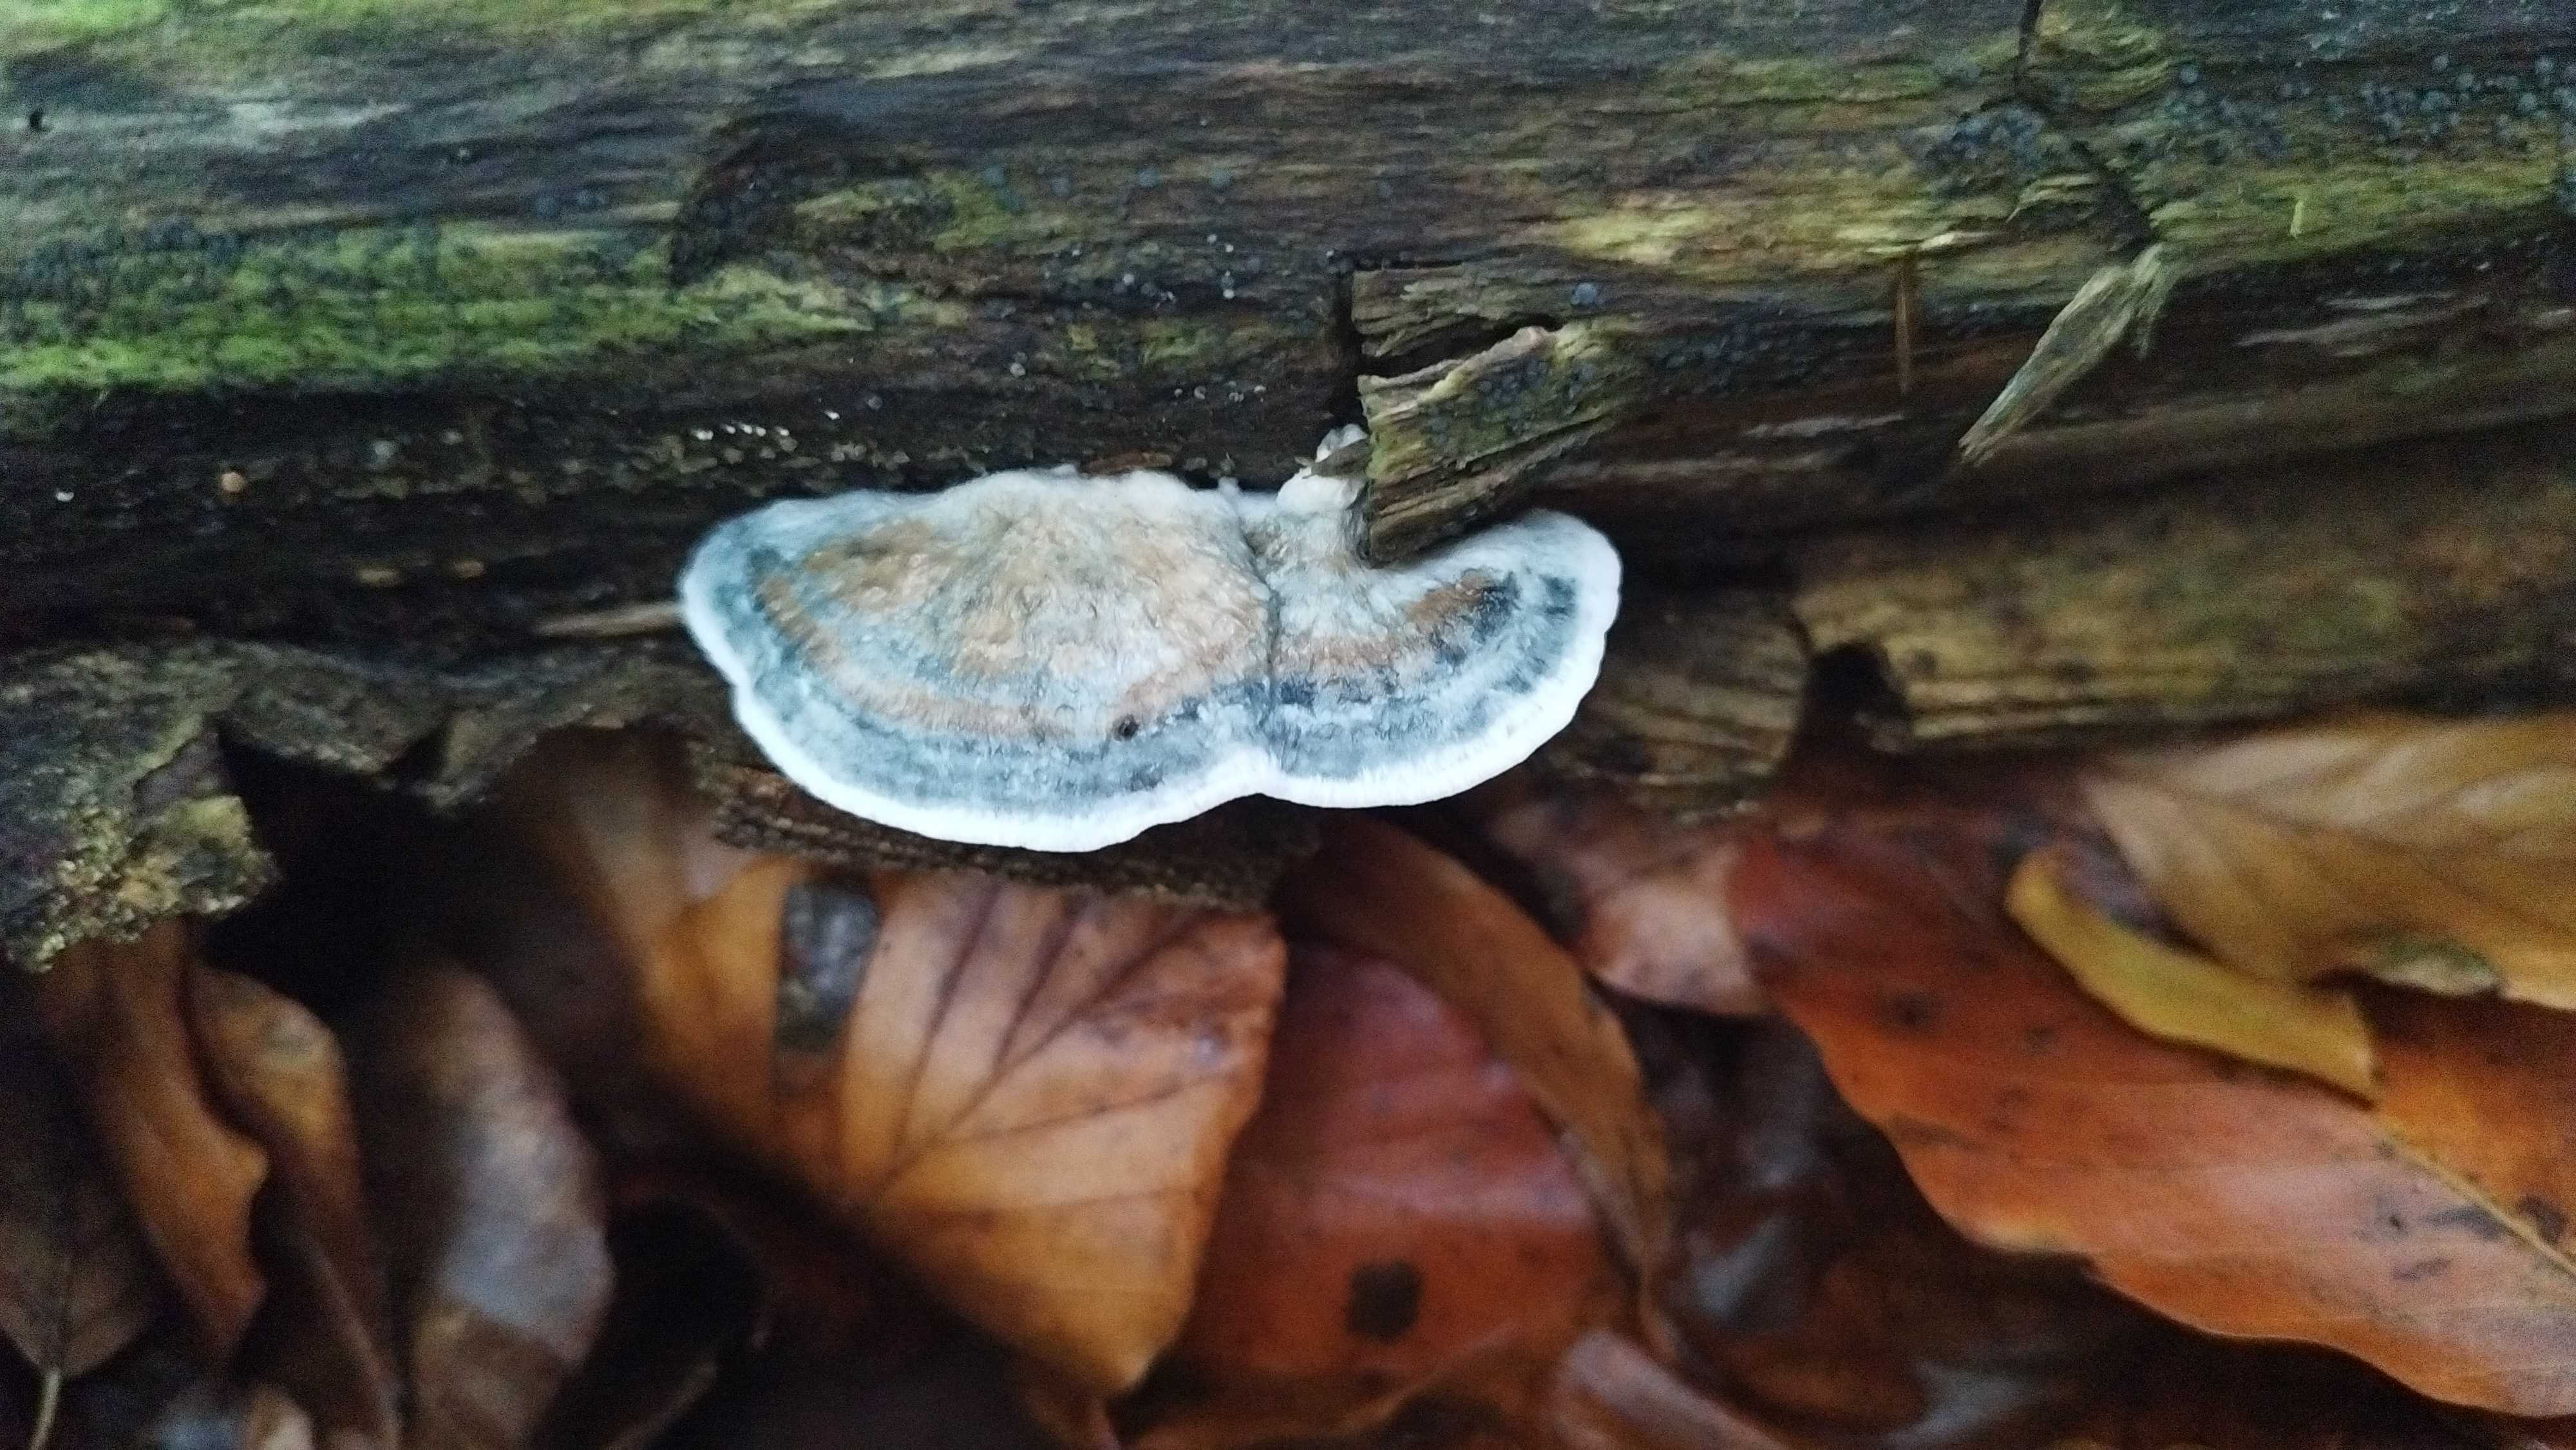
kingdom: Fungi
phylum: Basidiomycota
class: Agaricomycetes
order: Polyporales
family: Polyporaceae
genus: Cyanosporus
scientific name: Cyanosporus alni
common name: blegblå kødporesvamp
